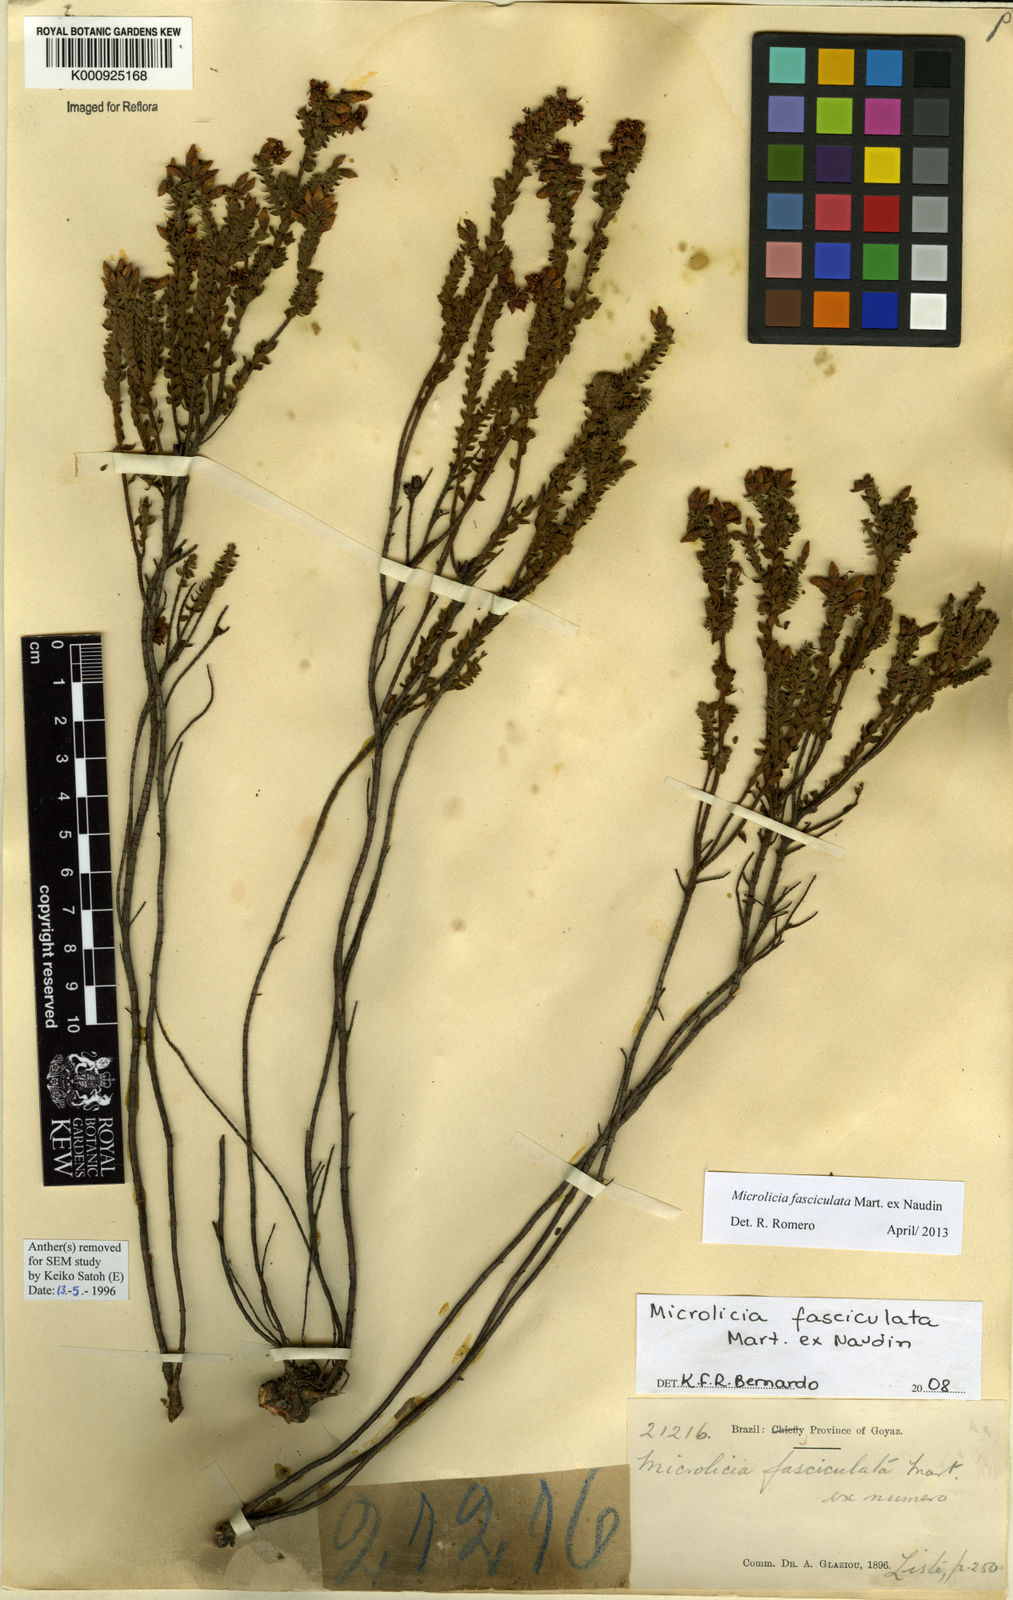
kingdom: Plantae
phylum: Tracheophyta
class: Magnoliopsida
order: Myrtales
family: Melastomataceae
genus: Microlicia
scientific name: Microlicia fasciculata
